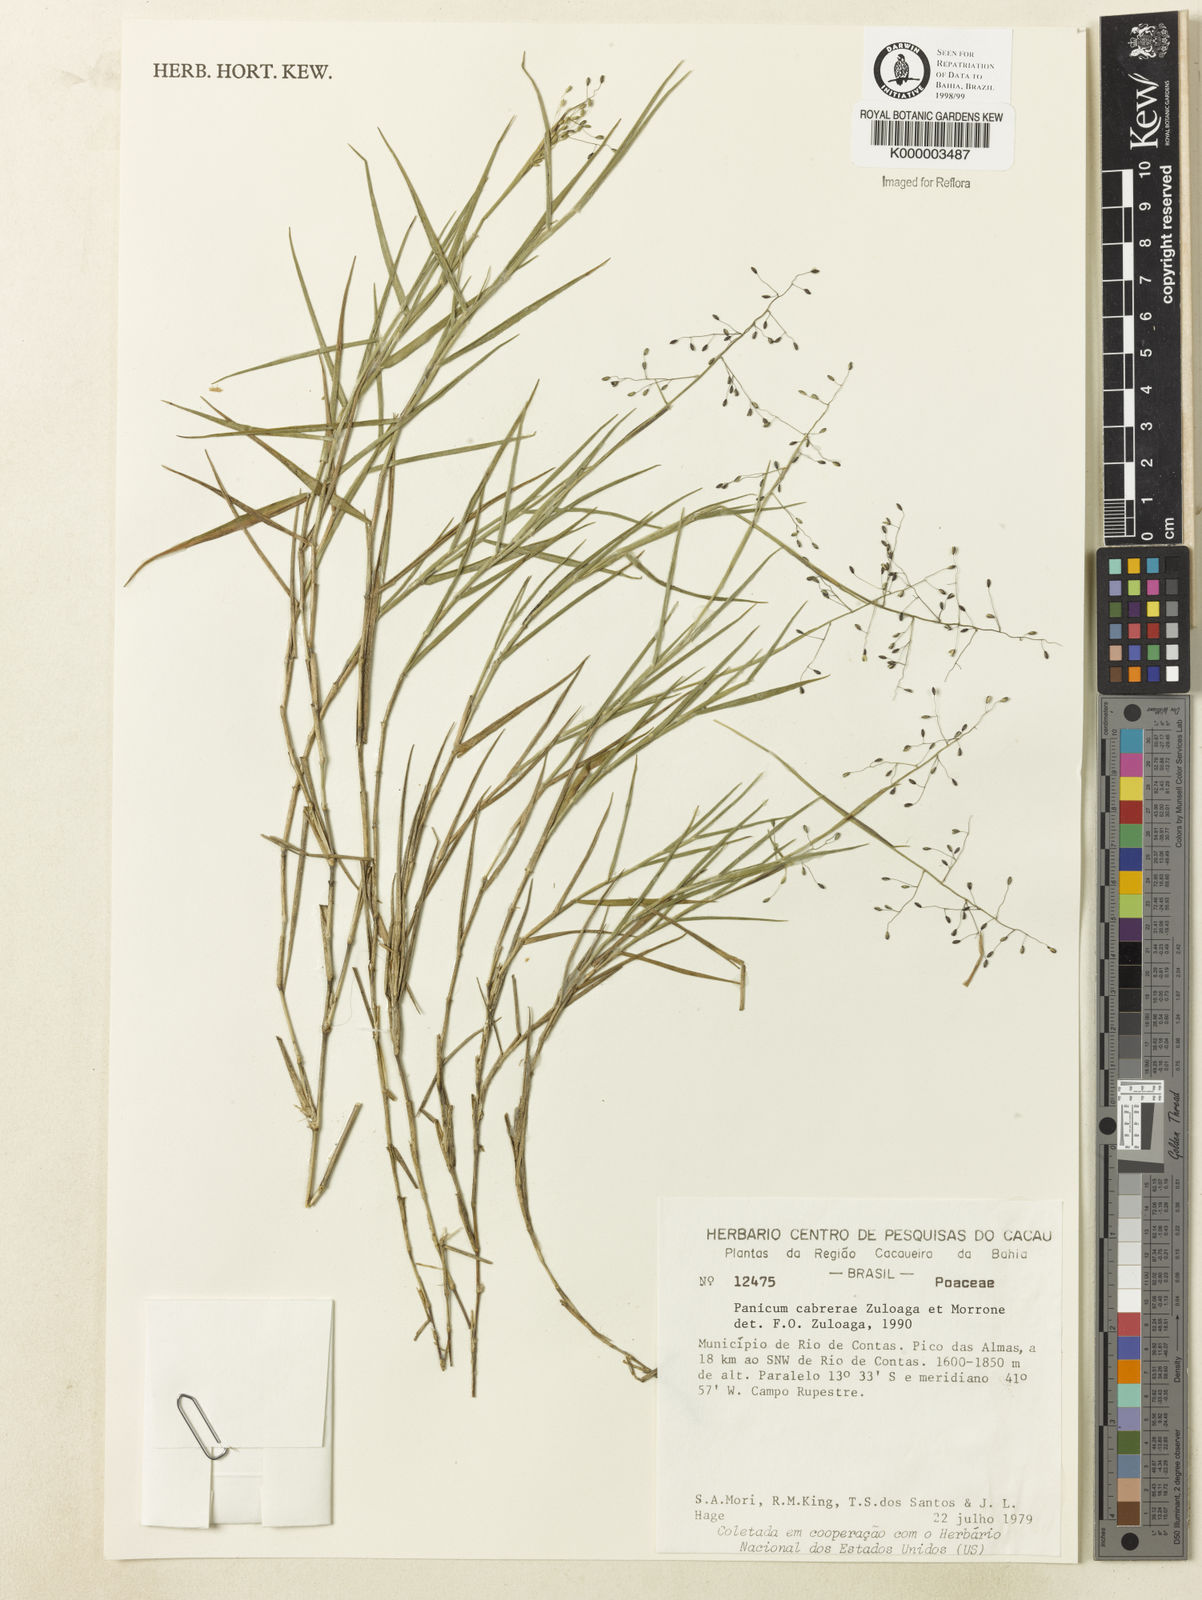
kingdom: Plantae
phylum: Tracheophyta
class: Liliopsida
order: Poales
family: Poaceae
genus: Dichanthelium
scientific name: Dichanthelium cabrerae
